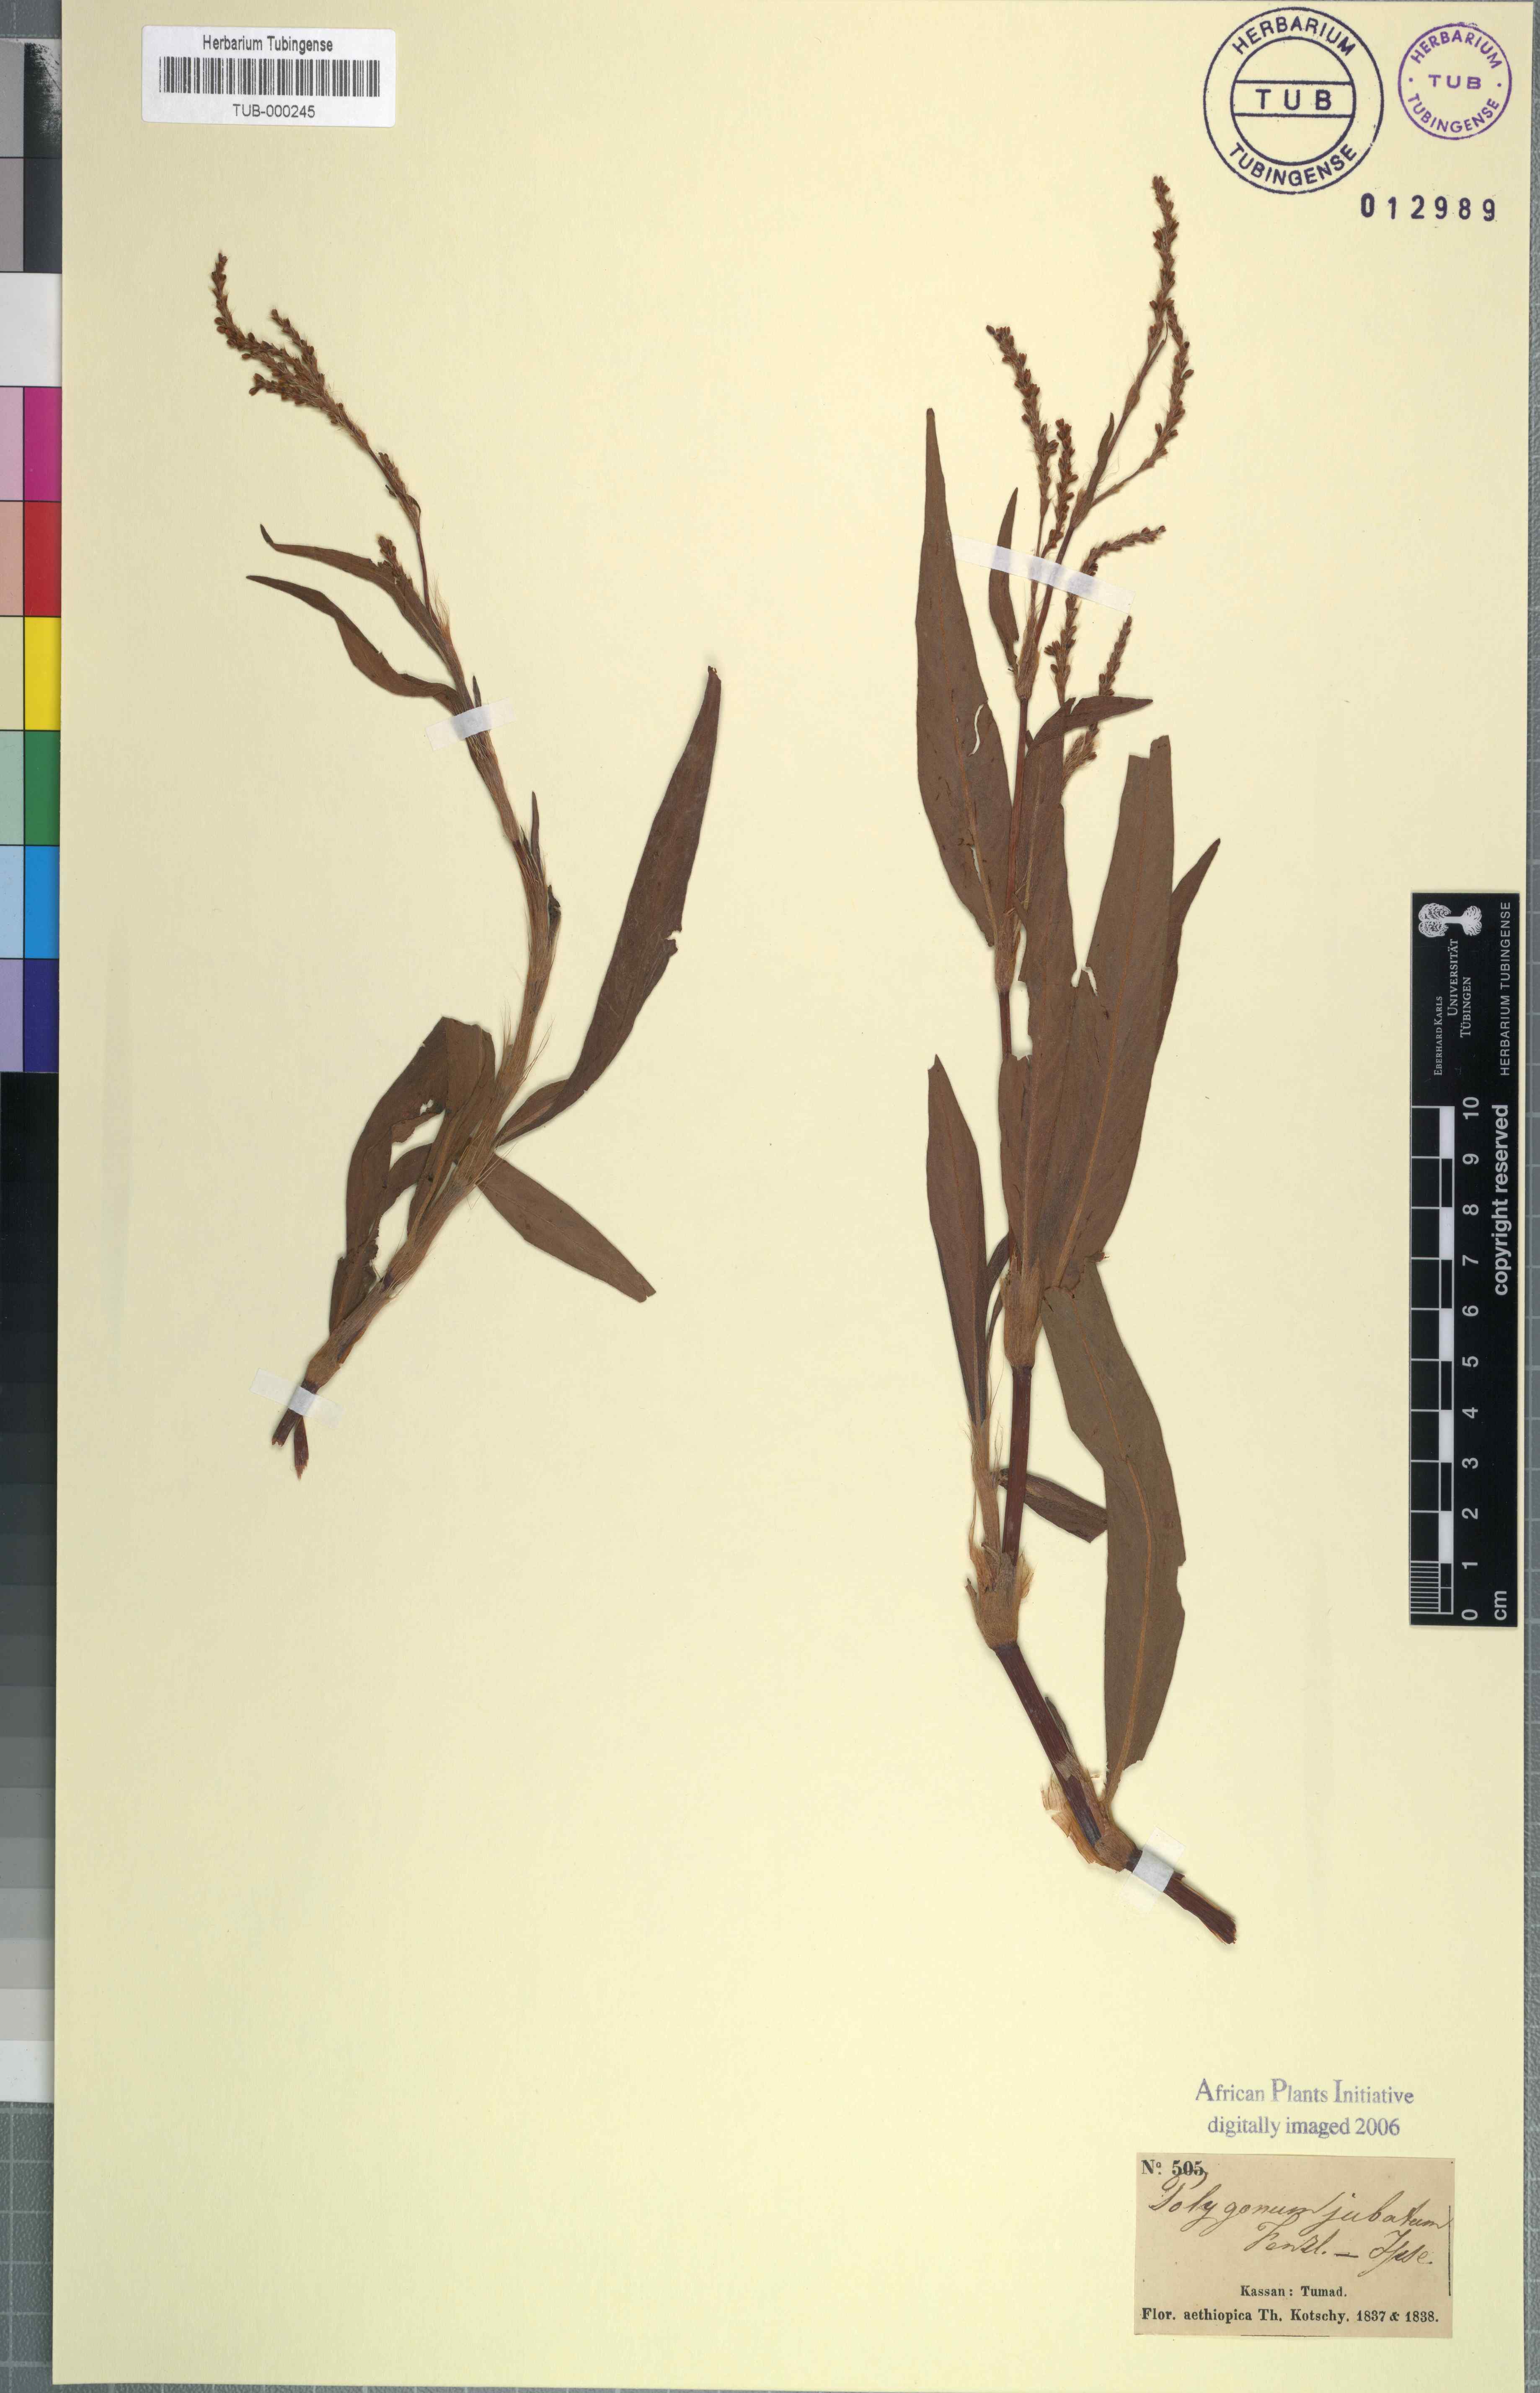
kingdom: Plantae
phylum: Tracheophyta
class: Magnoliopsida
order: Caryophyllales
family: Polygonaceae
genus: Polygonum
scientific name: Polygonum
